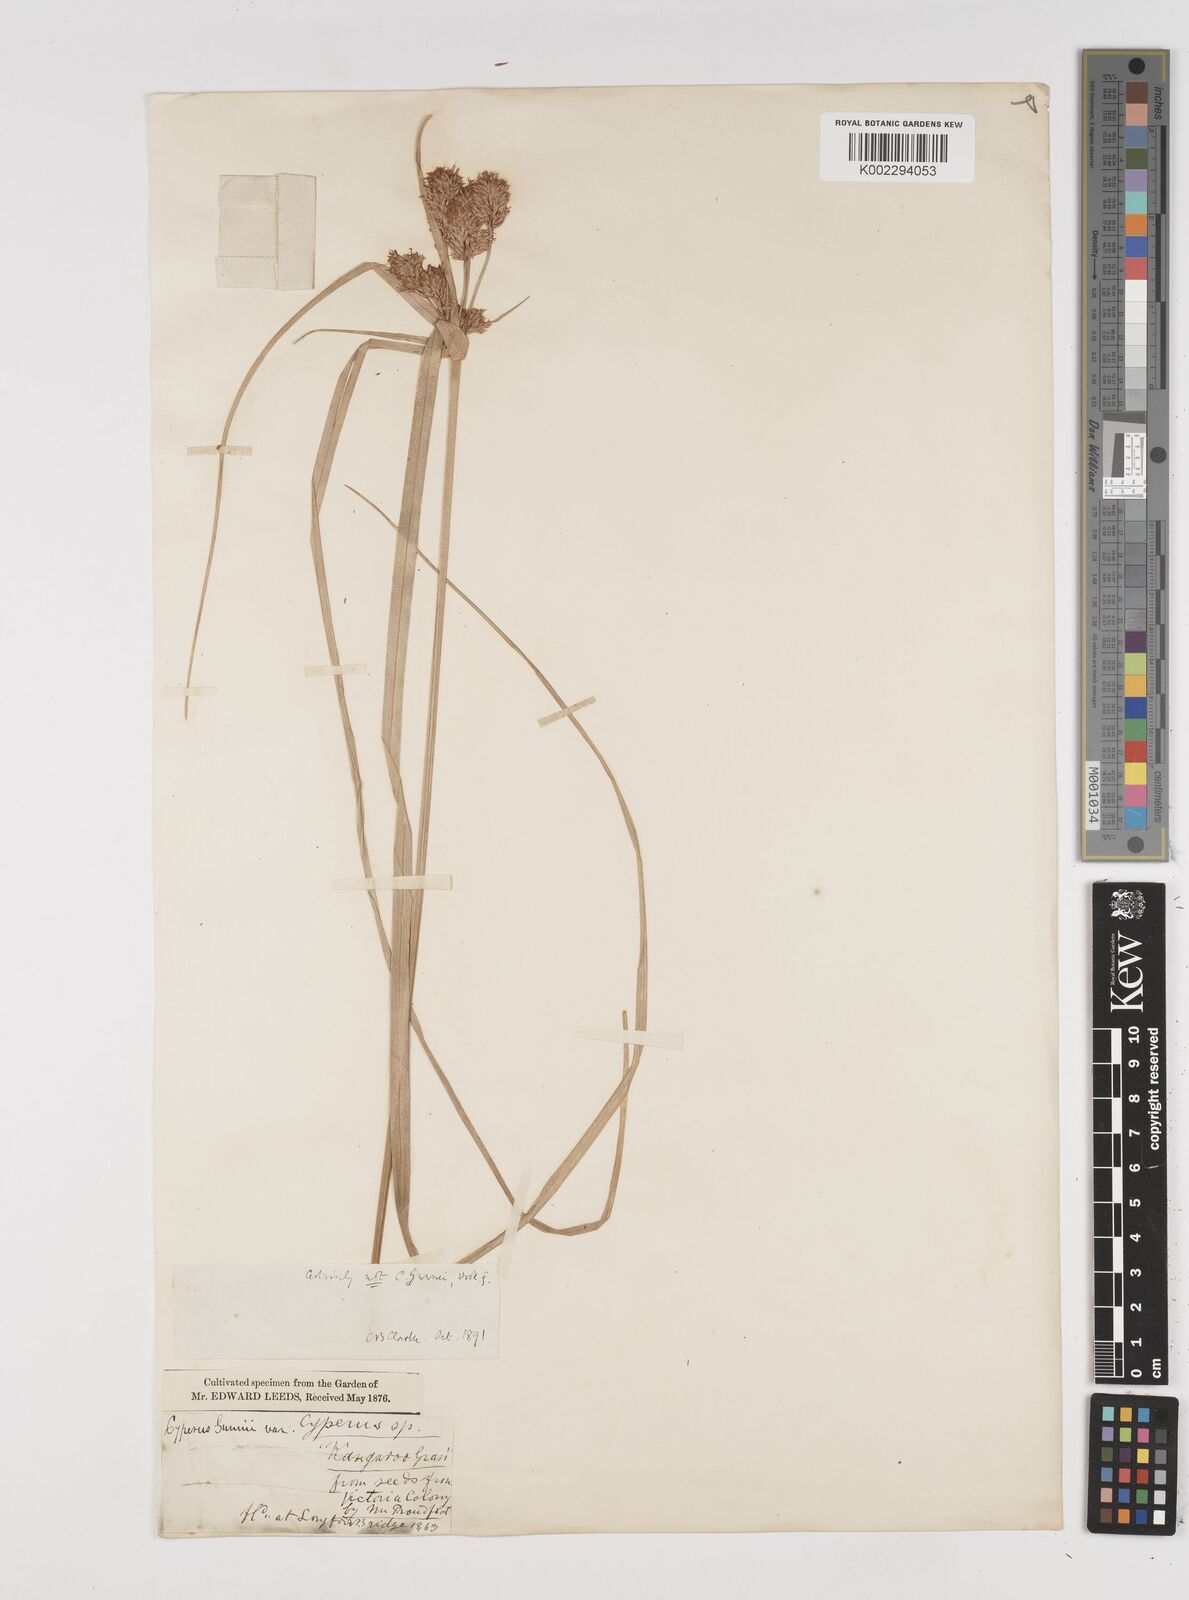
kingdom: Plantae
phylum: Tracheophyta
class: Liliopsida
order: Poales
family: Cyperaceae
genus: Cyperus
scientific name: Cyperus lucidus
